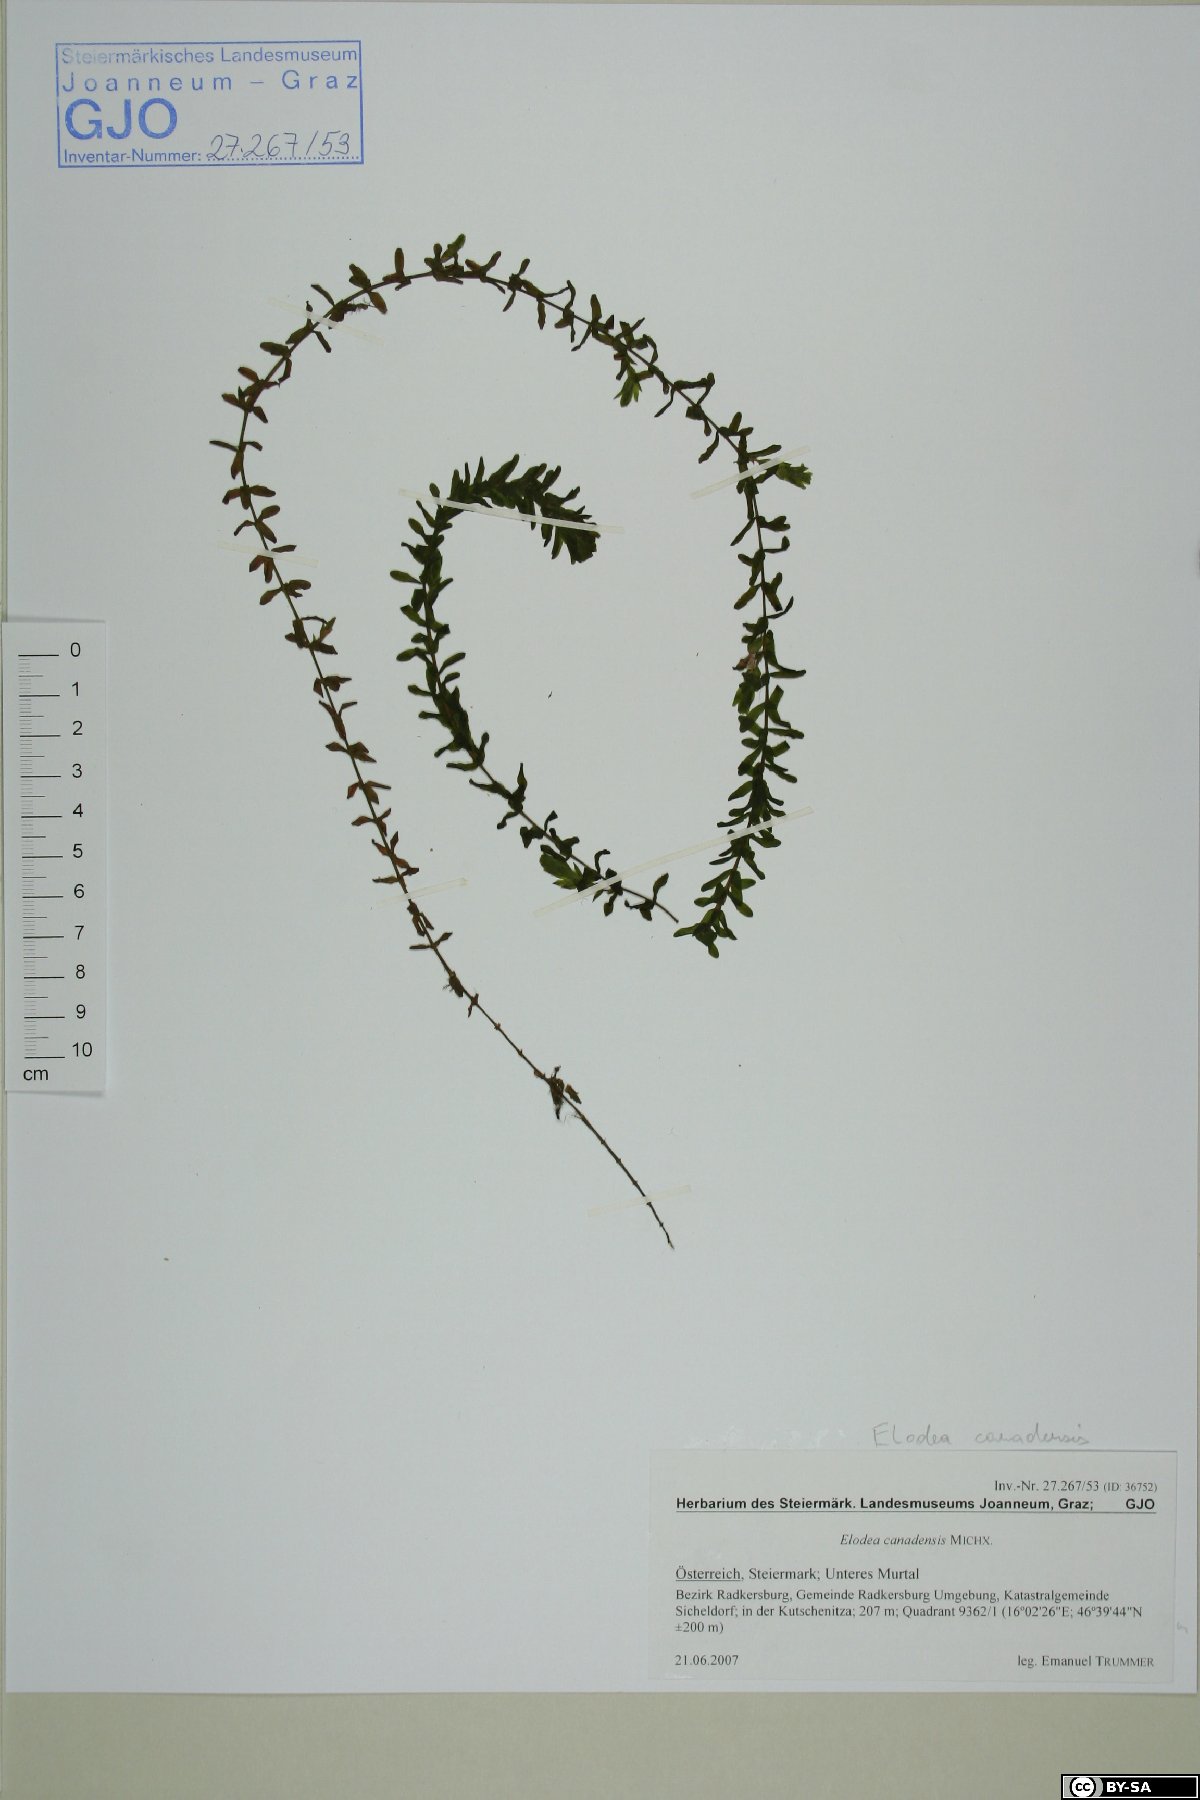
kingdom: Plantae
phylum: Tracheophyta
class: Liliopsida
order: Alismatales
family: Hydrocharitaceae
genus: Elodea
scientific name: Elodea canadensis
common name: Canadian waterweed
